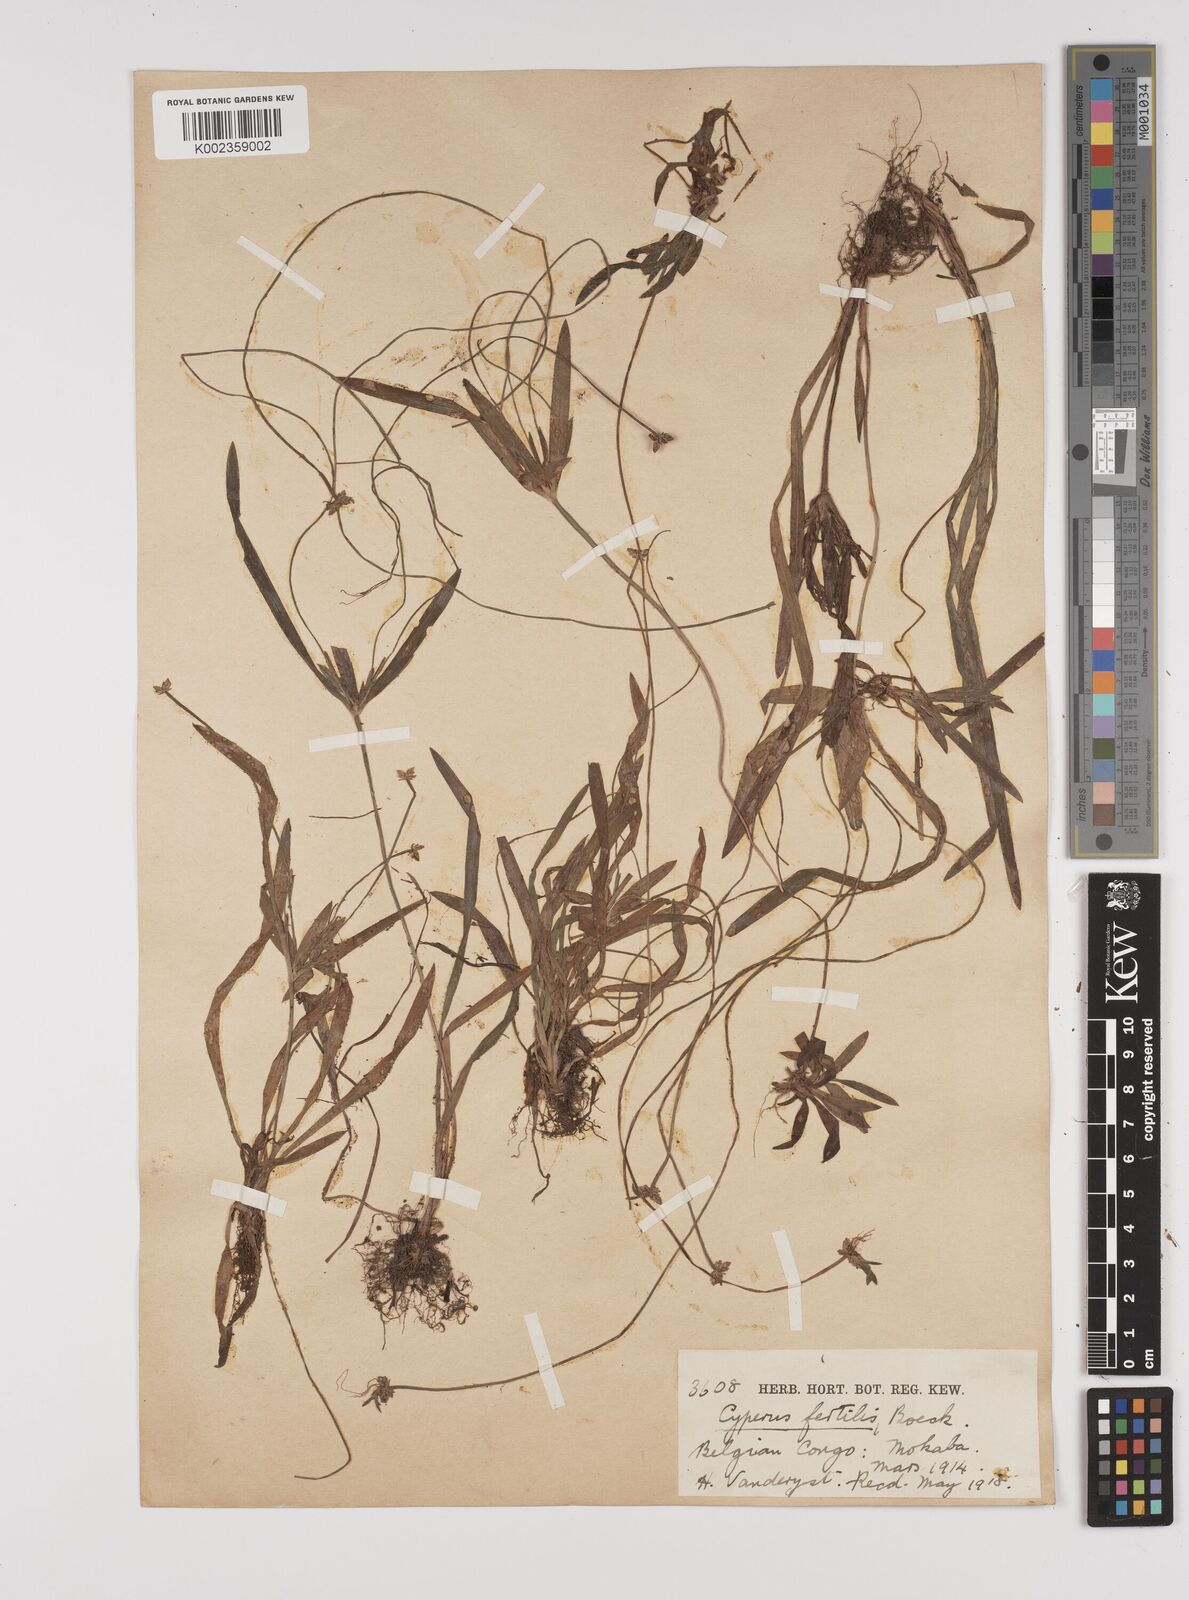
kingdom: Plantae
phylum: Tracheophyta
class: Liliopsida
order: Poales
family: Cyperaceae
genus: Cyperus
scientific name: Cyperus fertilis
